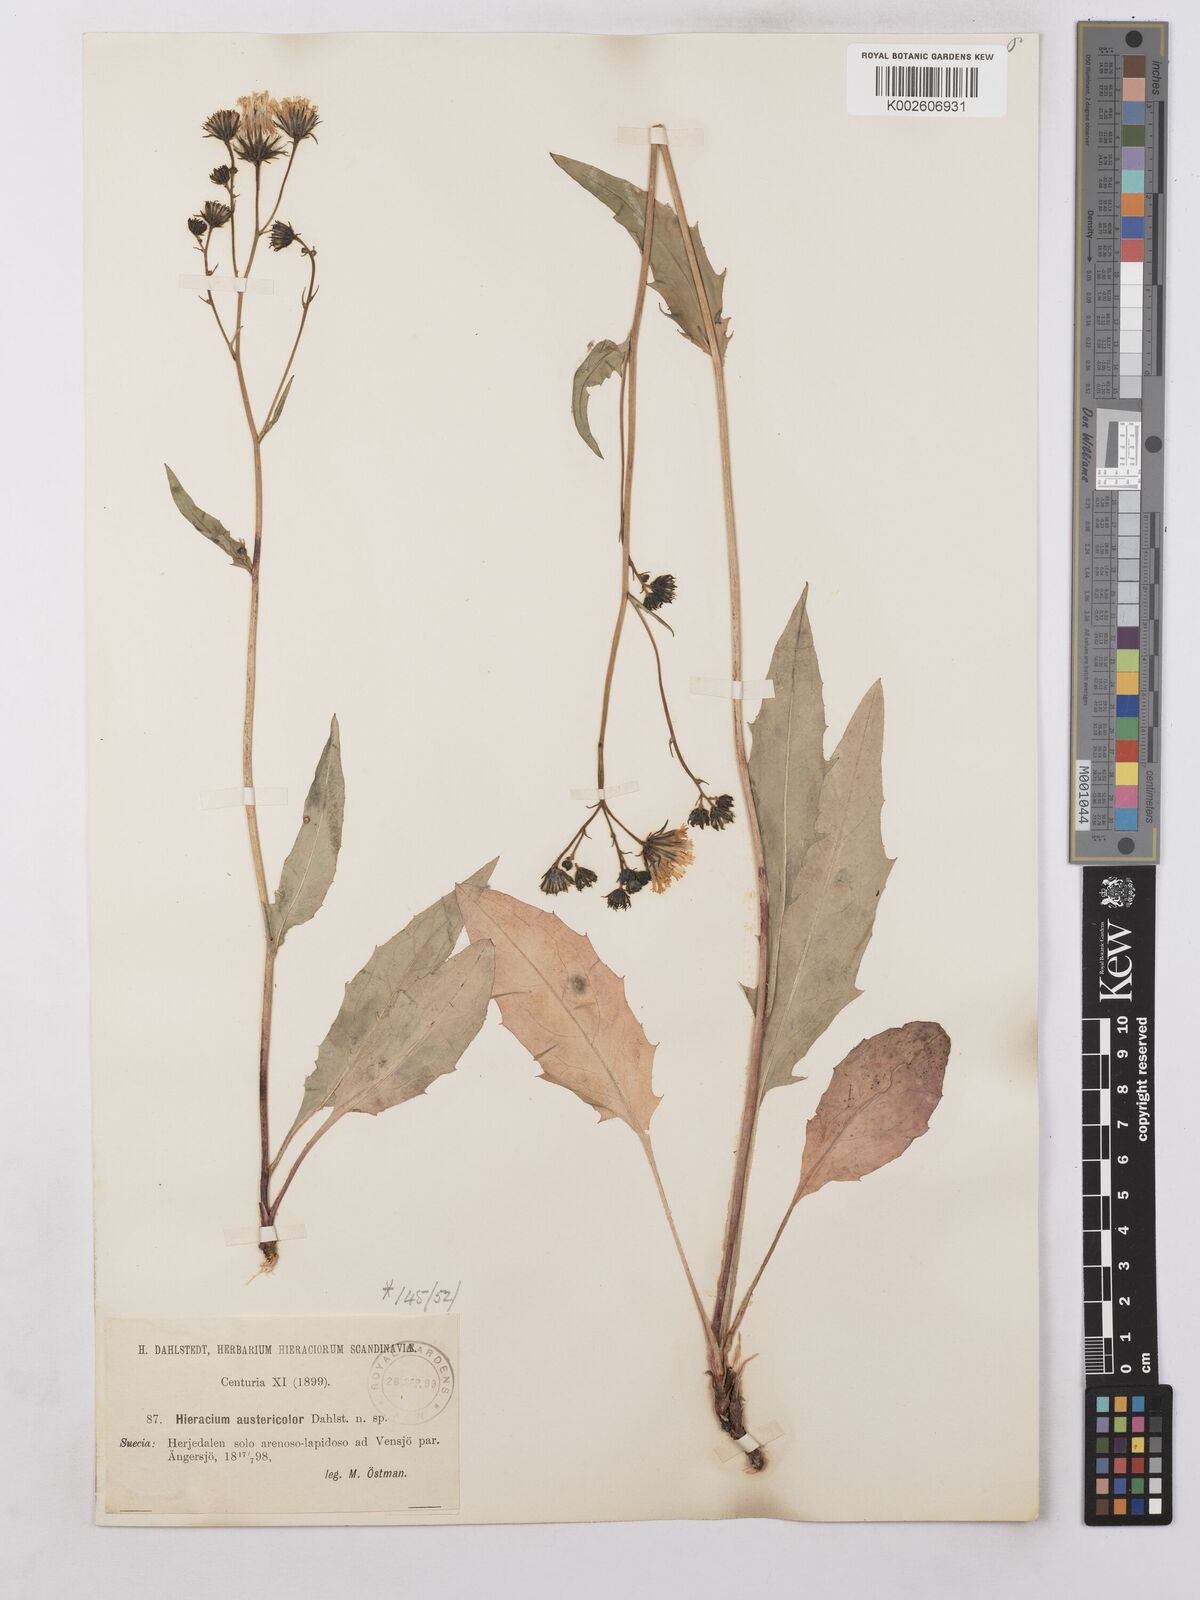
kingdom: Plantae
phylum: Tracheophyta
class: Magnoliopsida
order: Asterales
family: Asteraceae
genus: Hieracium
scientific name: Hieracium levicaule
